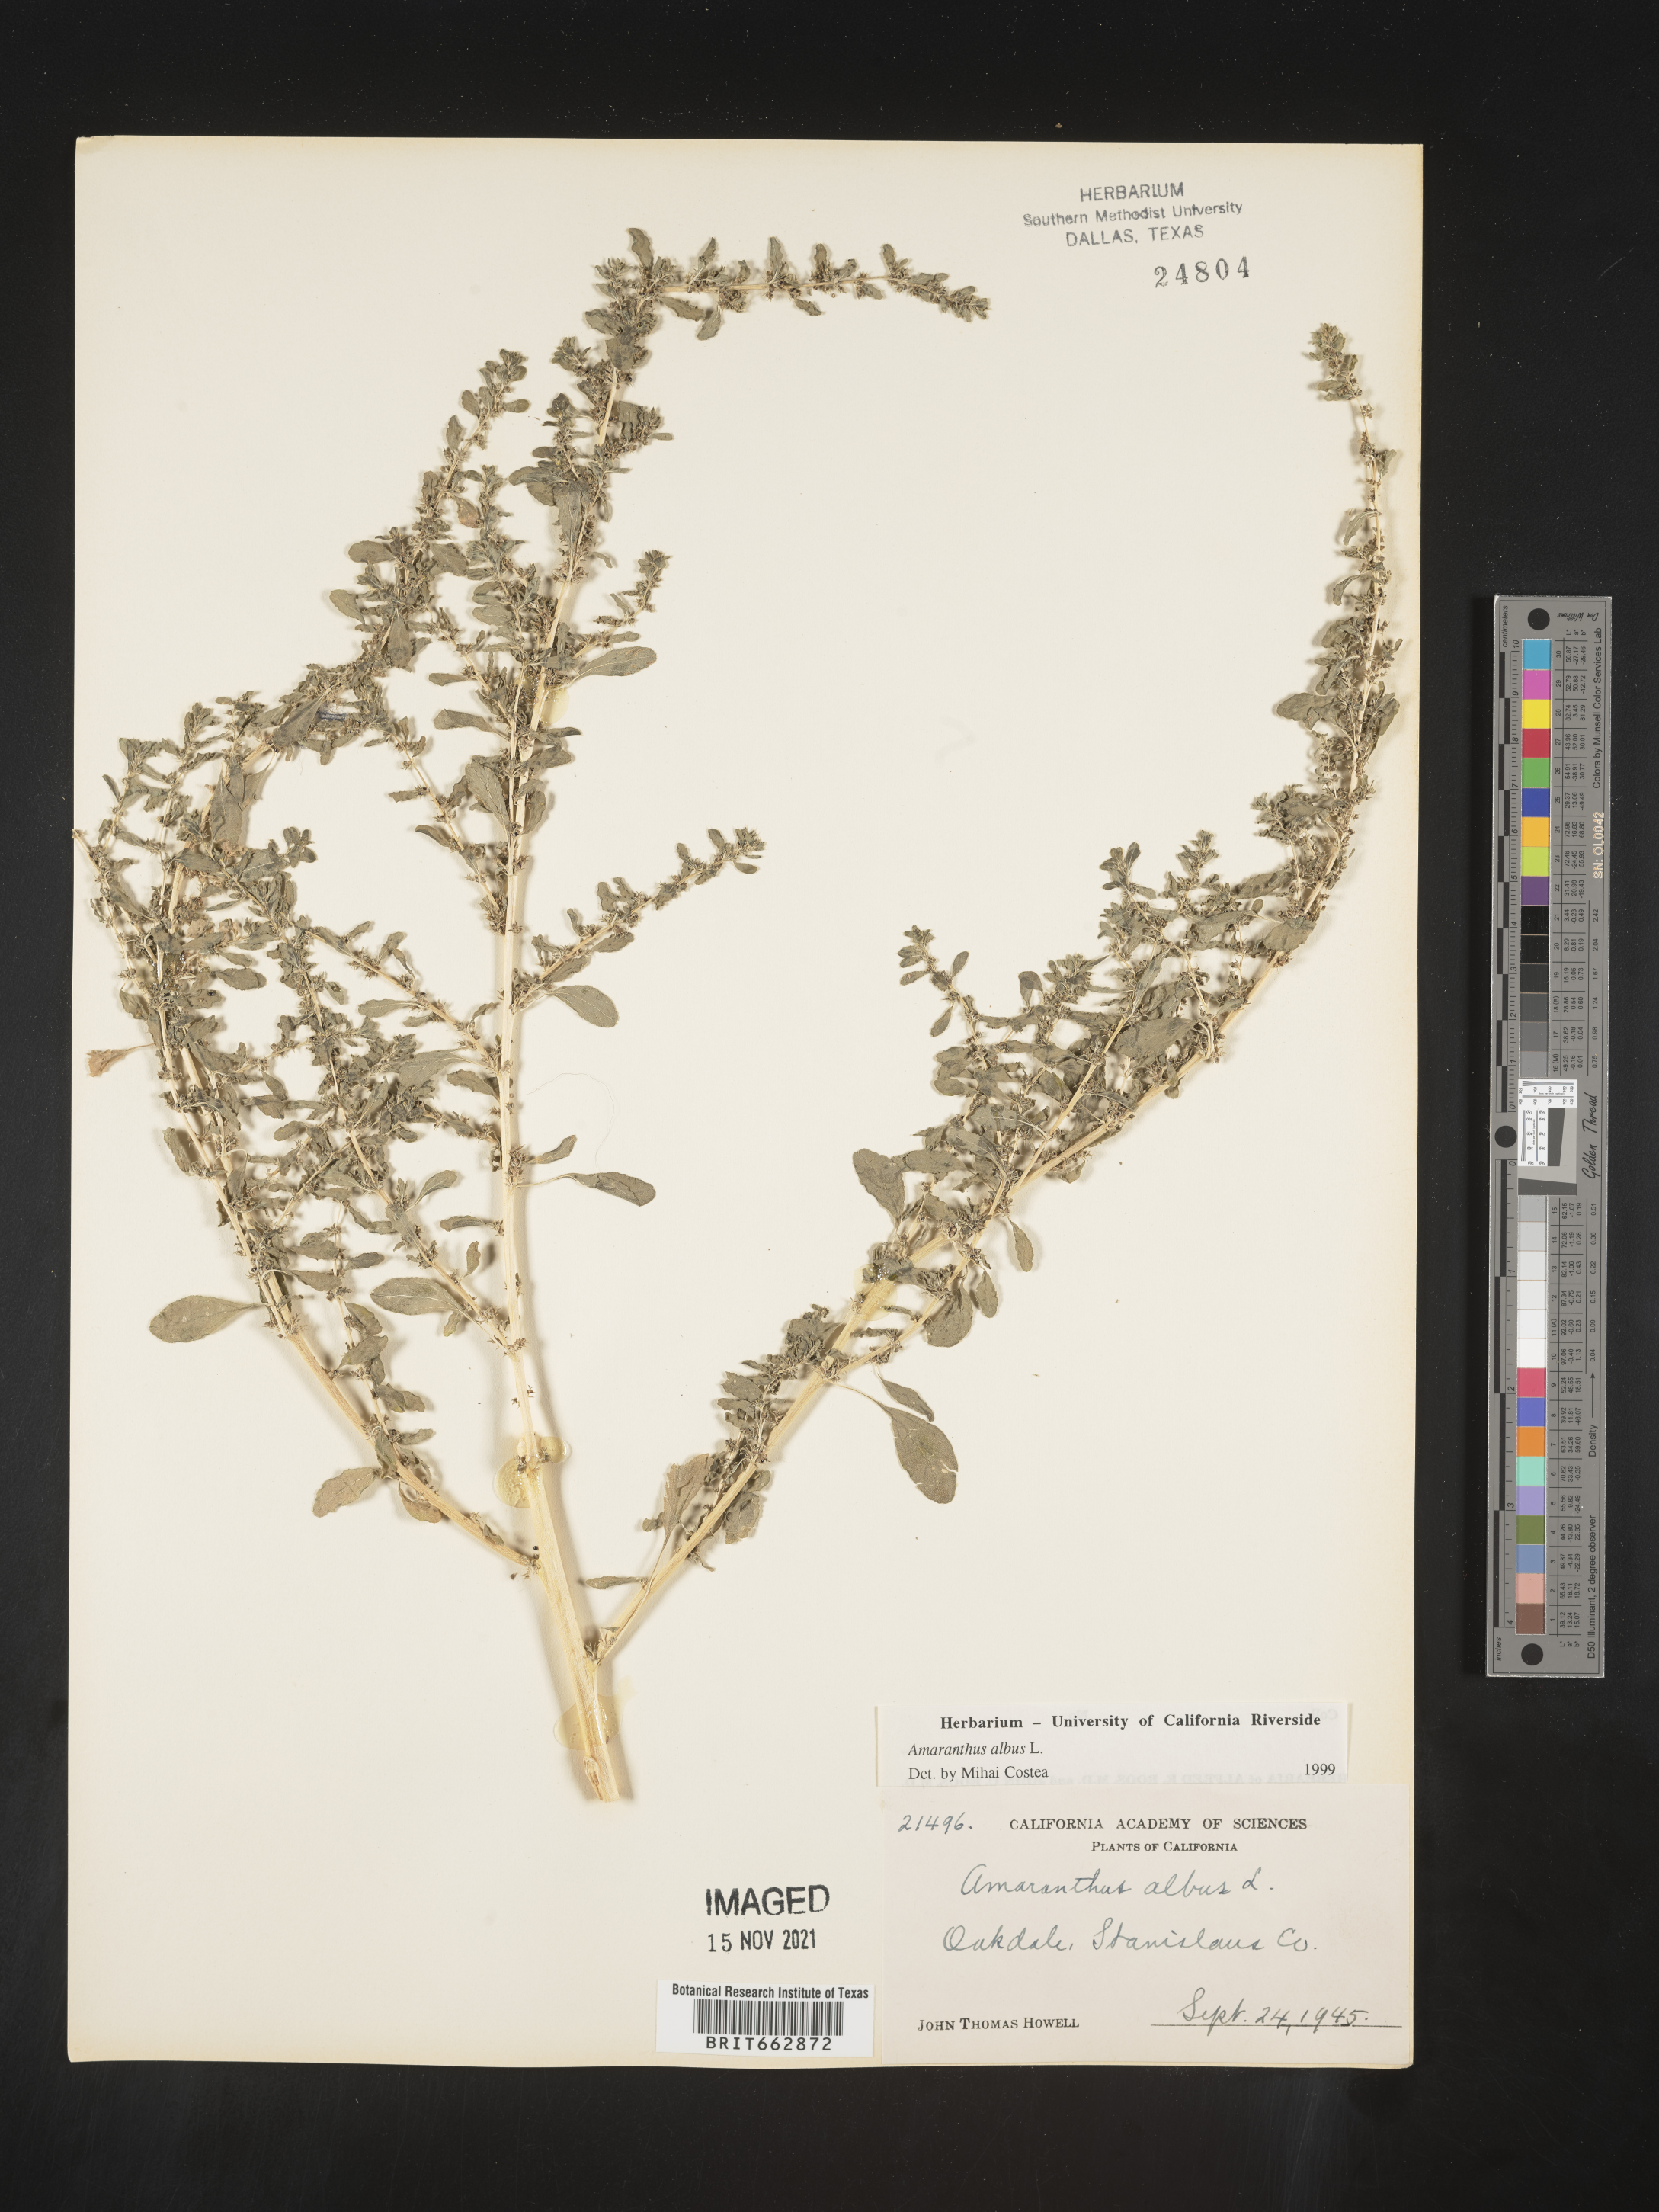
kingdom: Plantae
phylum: Tracheophyta
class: Magnoliopsida
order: Caryophyllales
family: Amaranthaceae
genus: Amaranthus
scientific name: Amaranthus albus
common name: White pigweed
